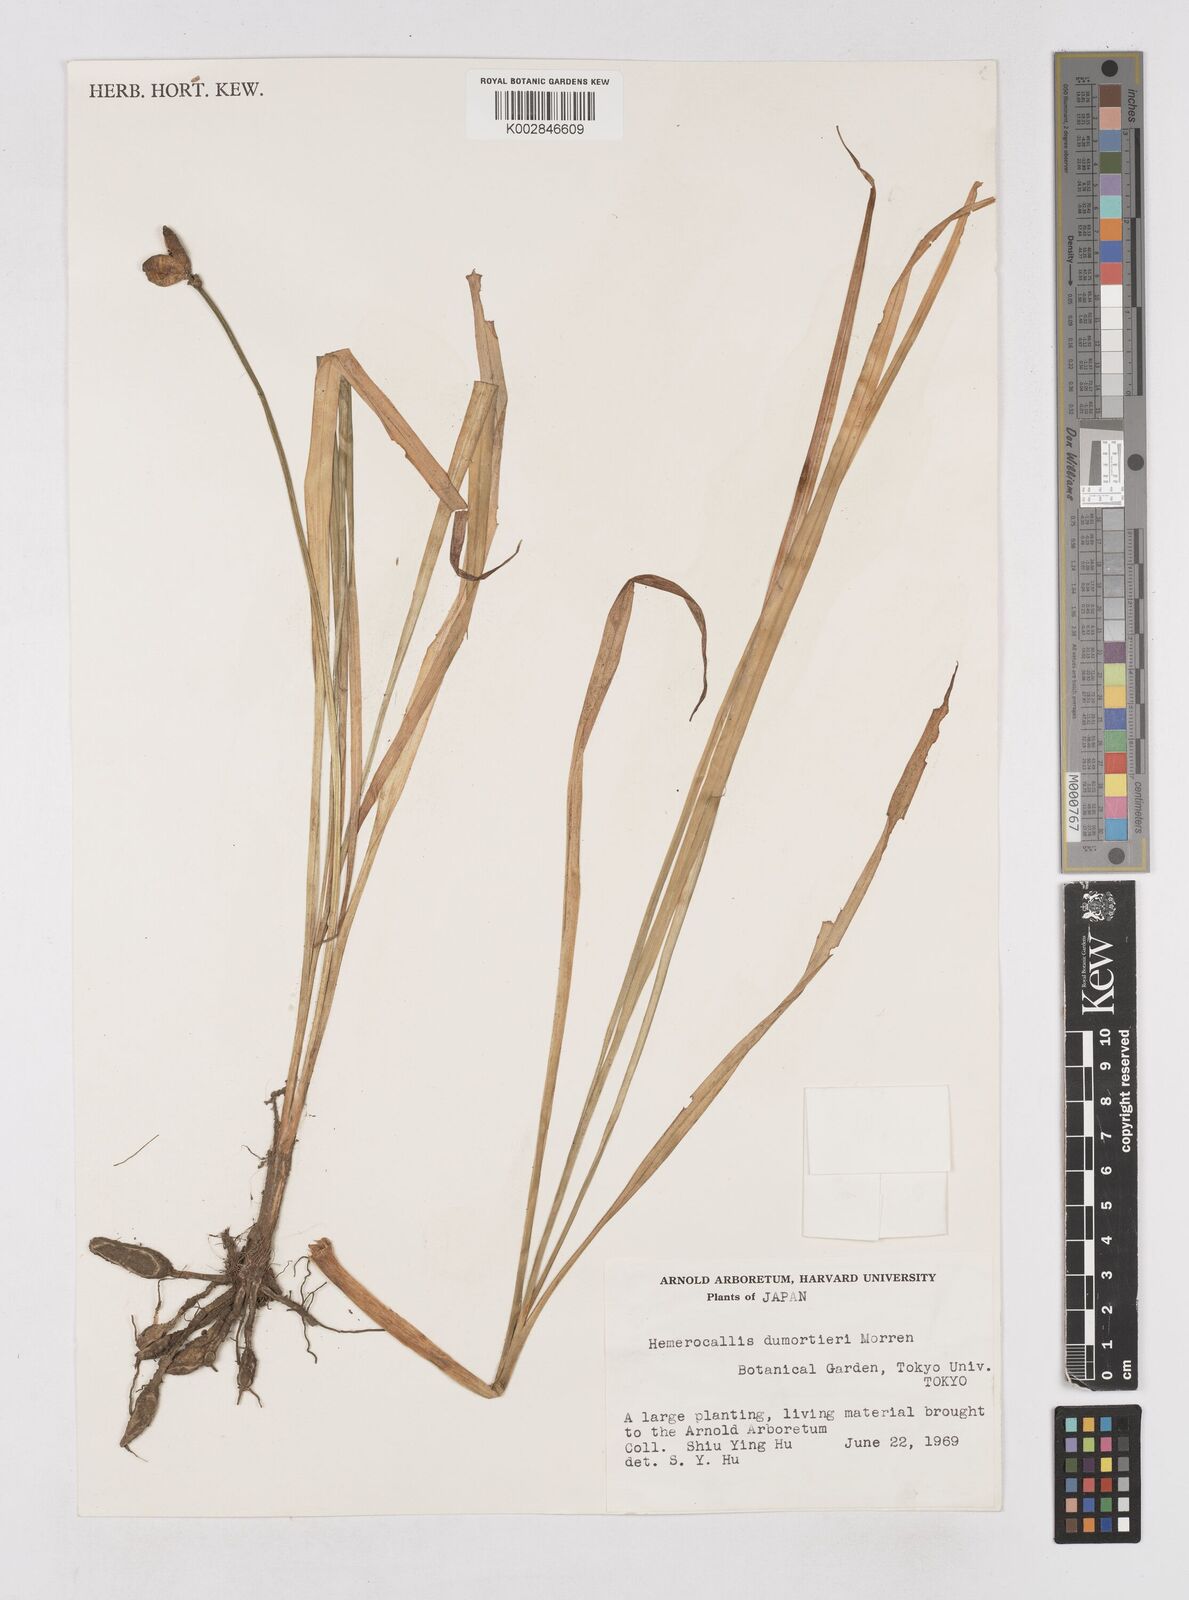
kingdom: Plantae
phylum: Tracheophyta
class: Liliopsida
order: Asparagales
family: Asphodelaceae
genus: Hemerocallis
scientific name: Hemerocallis dumortieri
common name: Dumortier's day-lily
